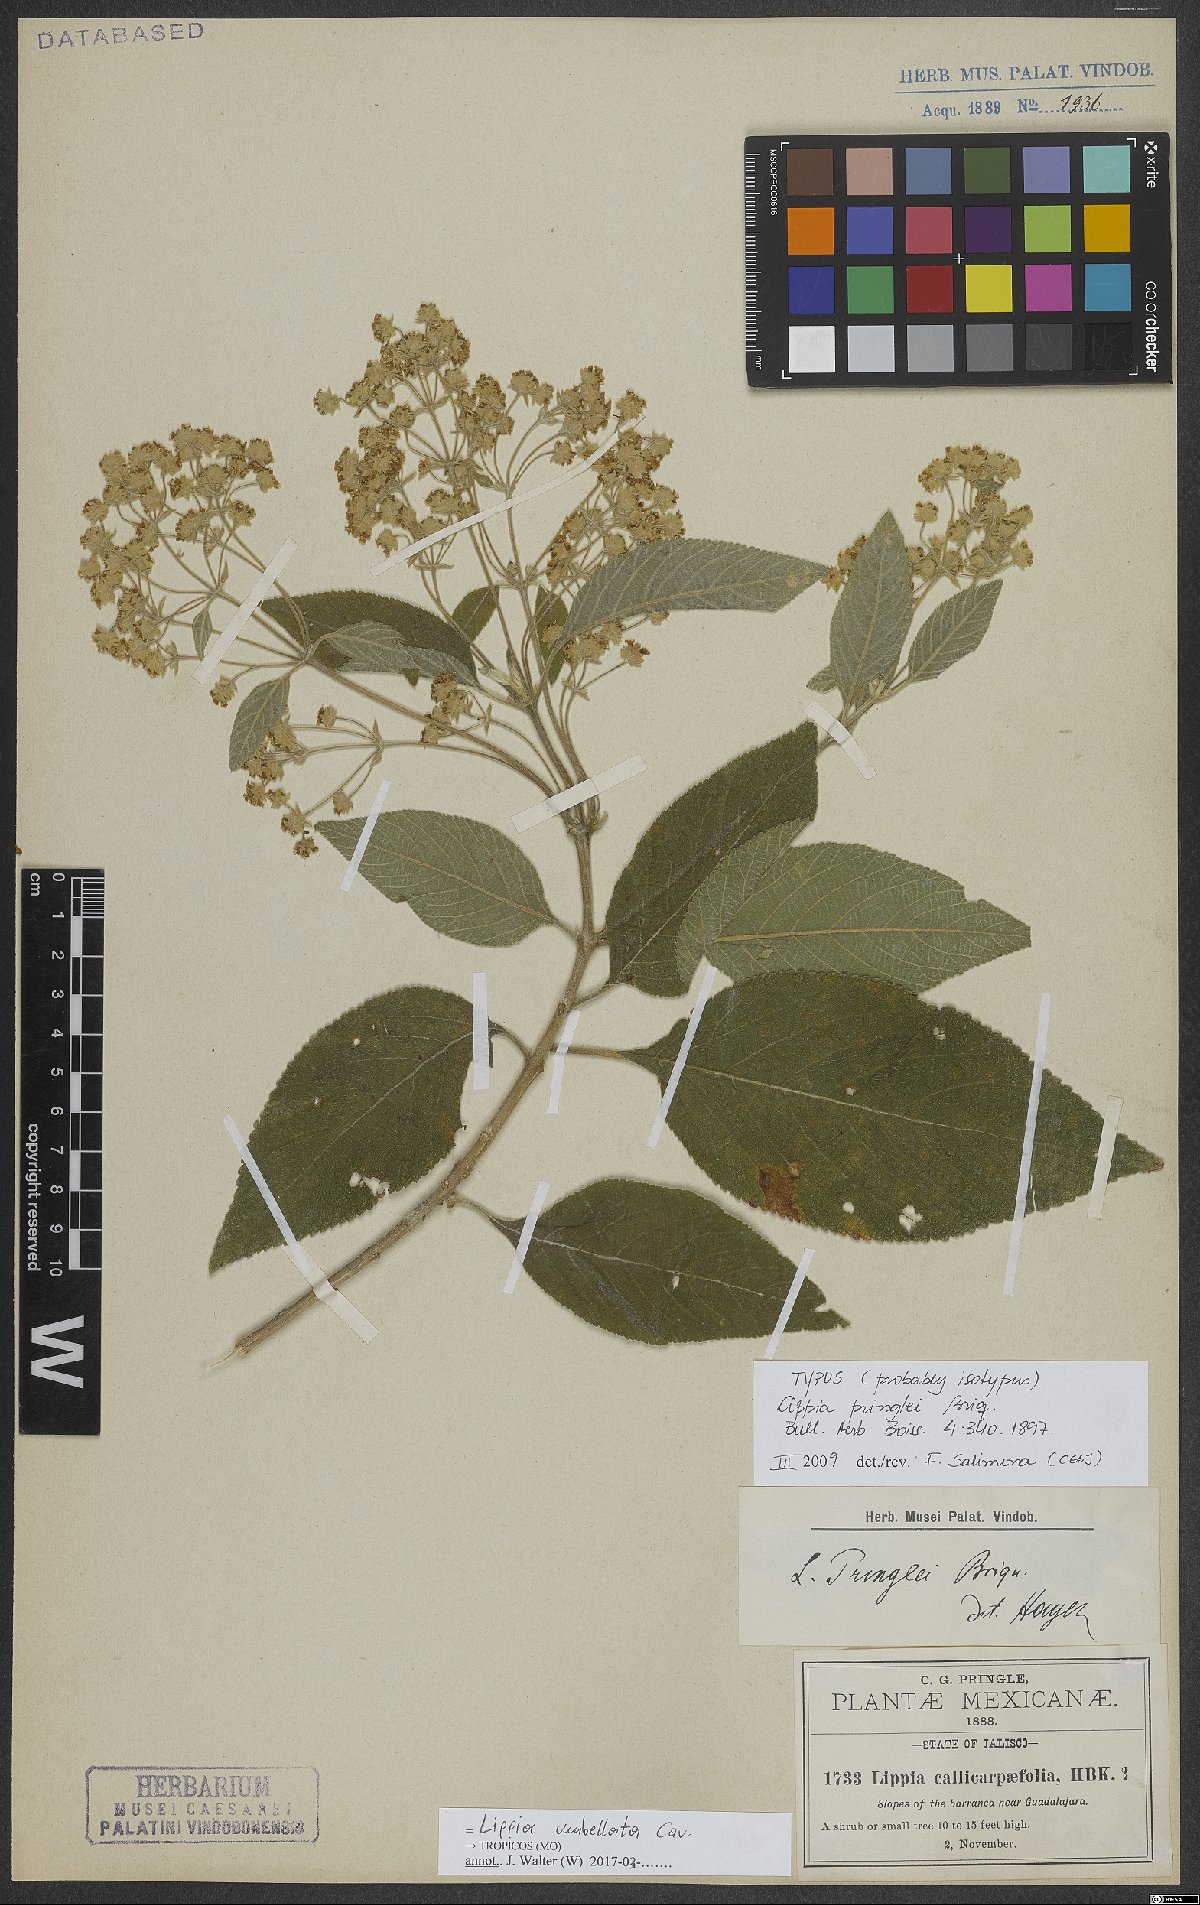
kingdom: Plantae
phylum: Tracheophyta
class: Magnoliopsida
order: Lamiales
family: Verbenaceae
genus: Lippia
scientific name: Lippia umbellata
